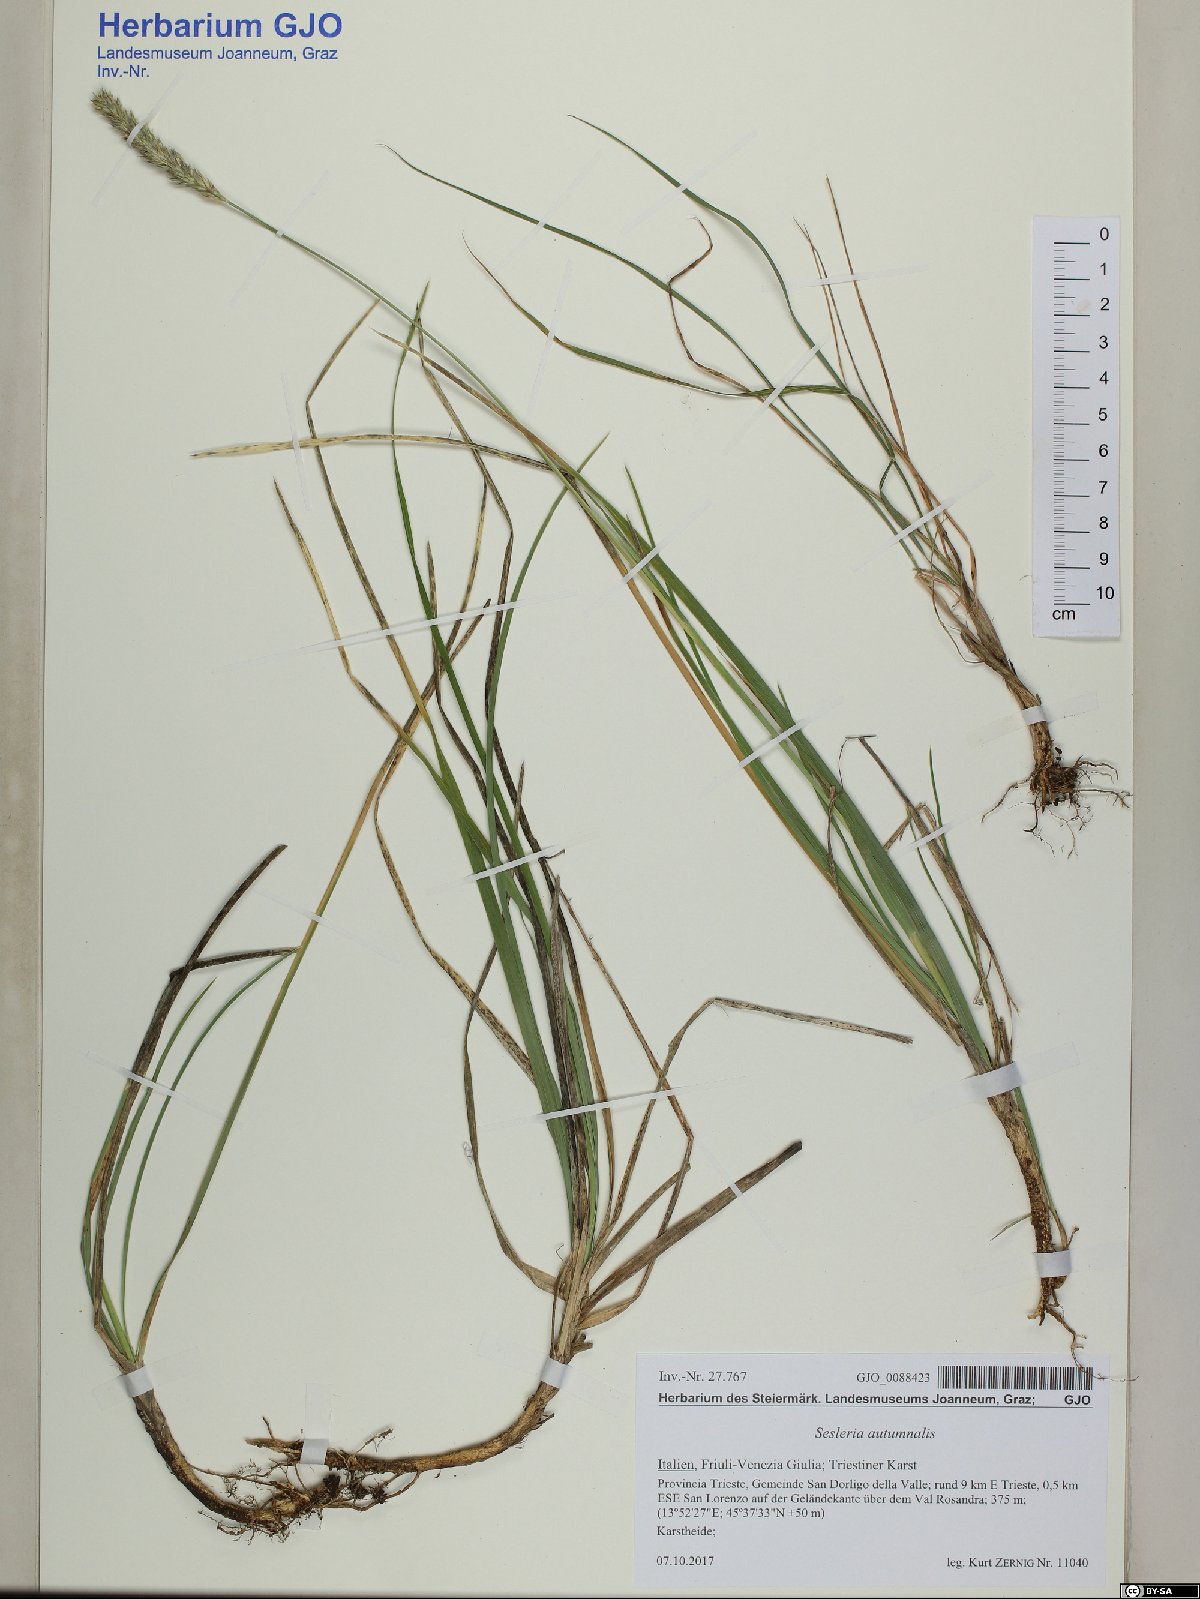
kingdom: Plantae
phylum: Tracheophyta
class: Liliopsida
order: Poales
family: Poaceae
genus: Sesleria
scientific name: Sesleria autumnalis
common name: Autumn moor grass
